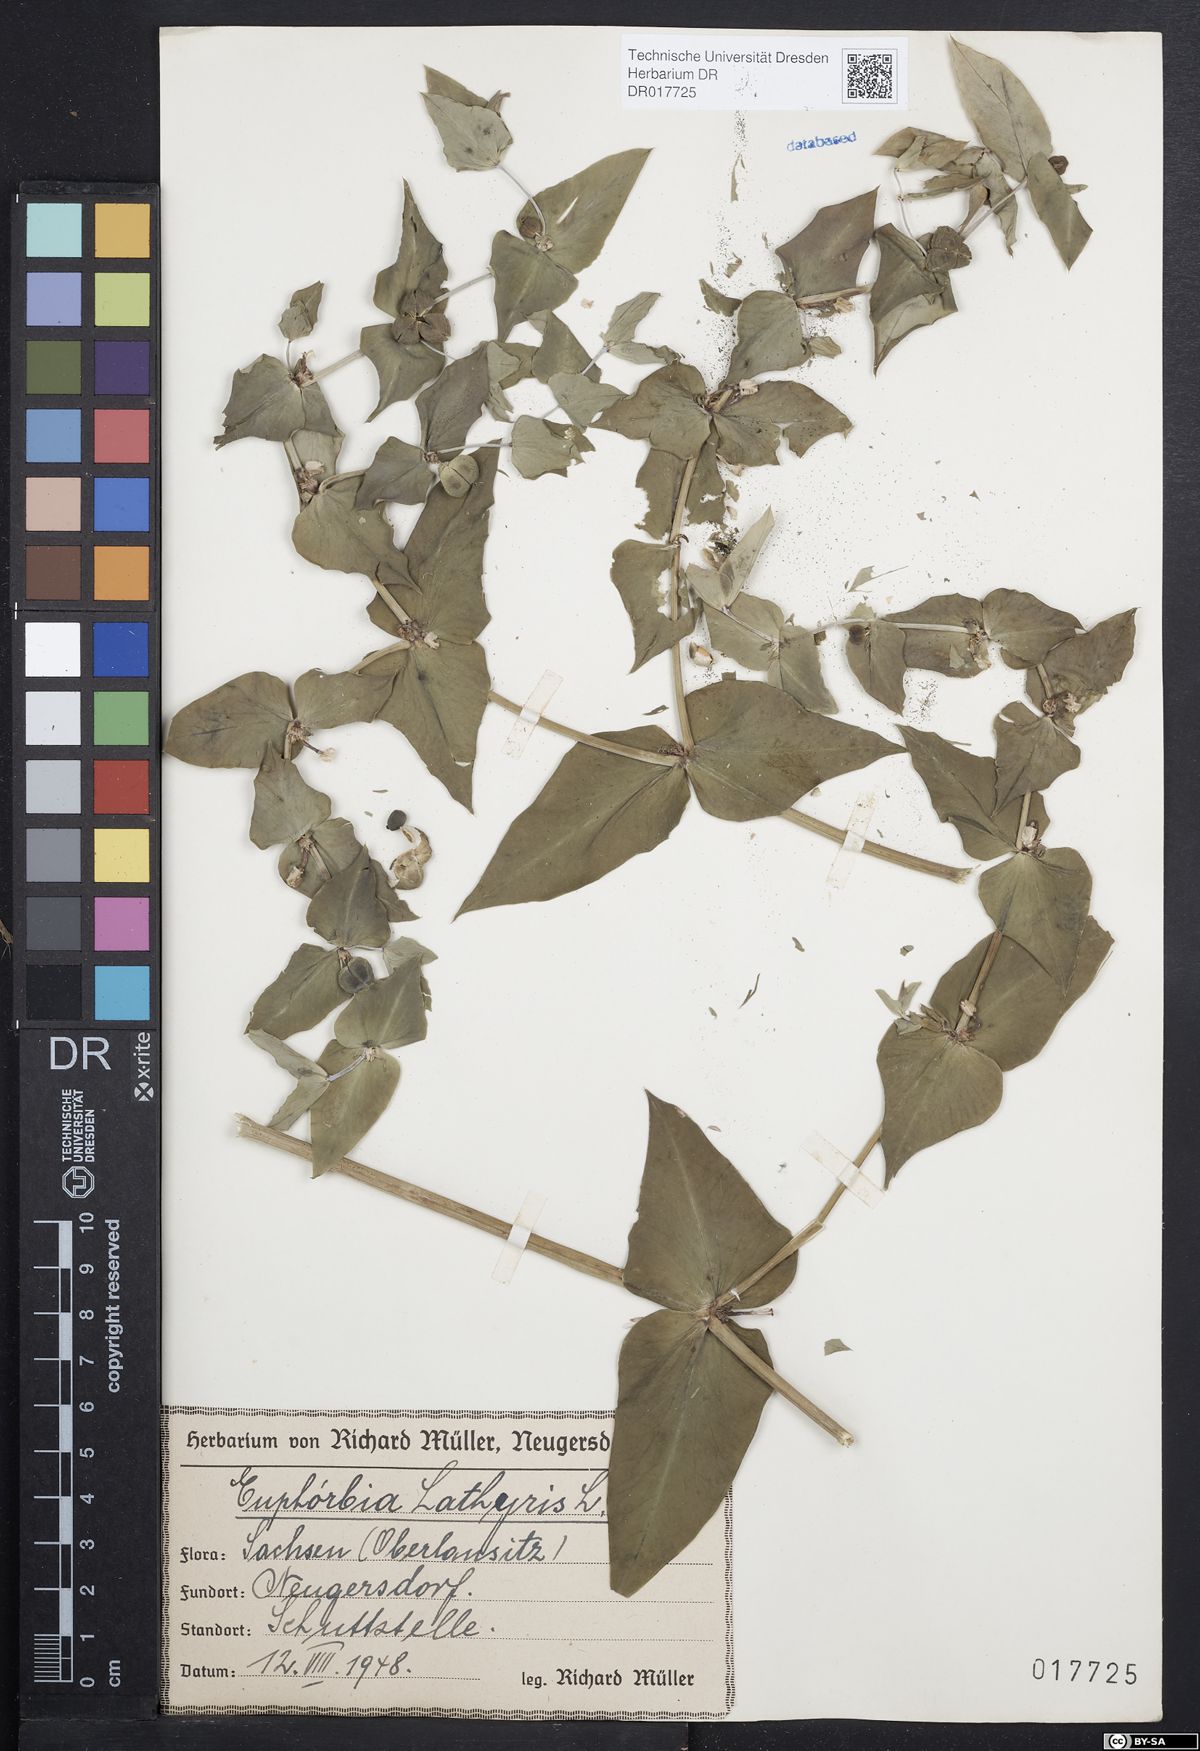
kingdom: Plantae
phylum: Tracheophyta
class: Magnoliopsida
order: Malpighiales
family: Euphorbiaceae
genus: Euphorbia
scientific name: Euphorbia lathyris
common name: Caper spurge
